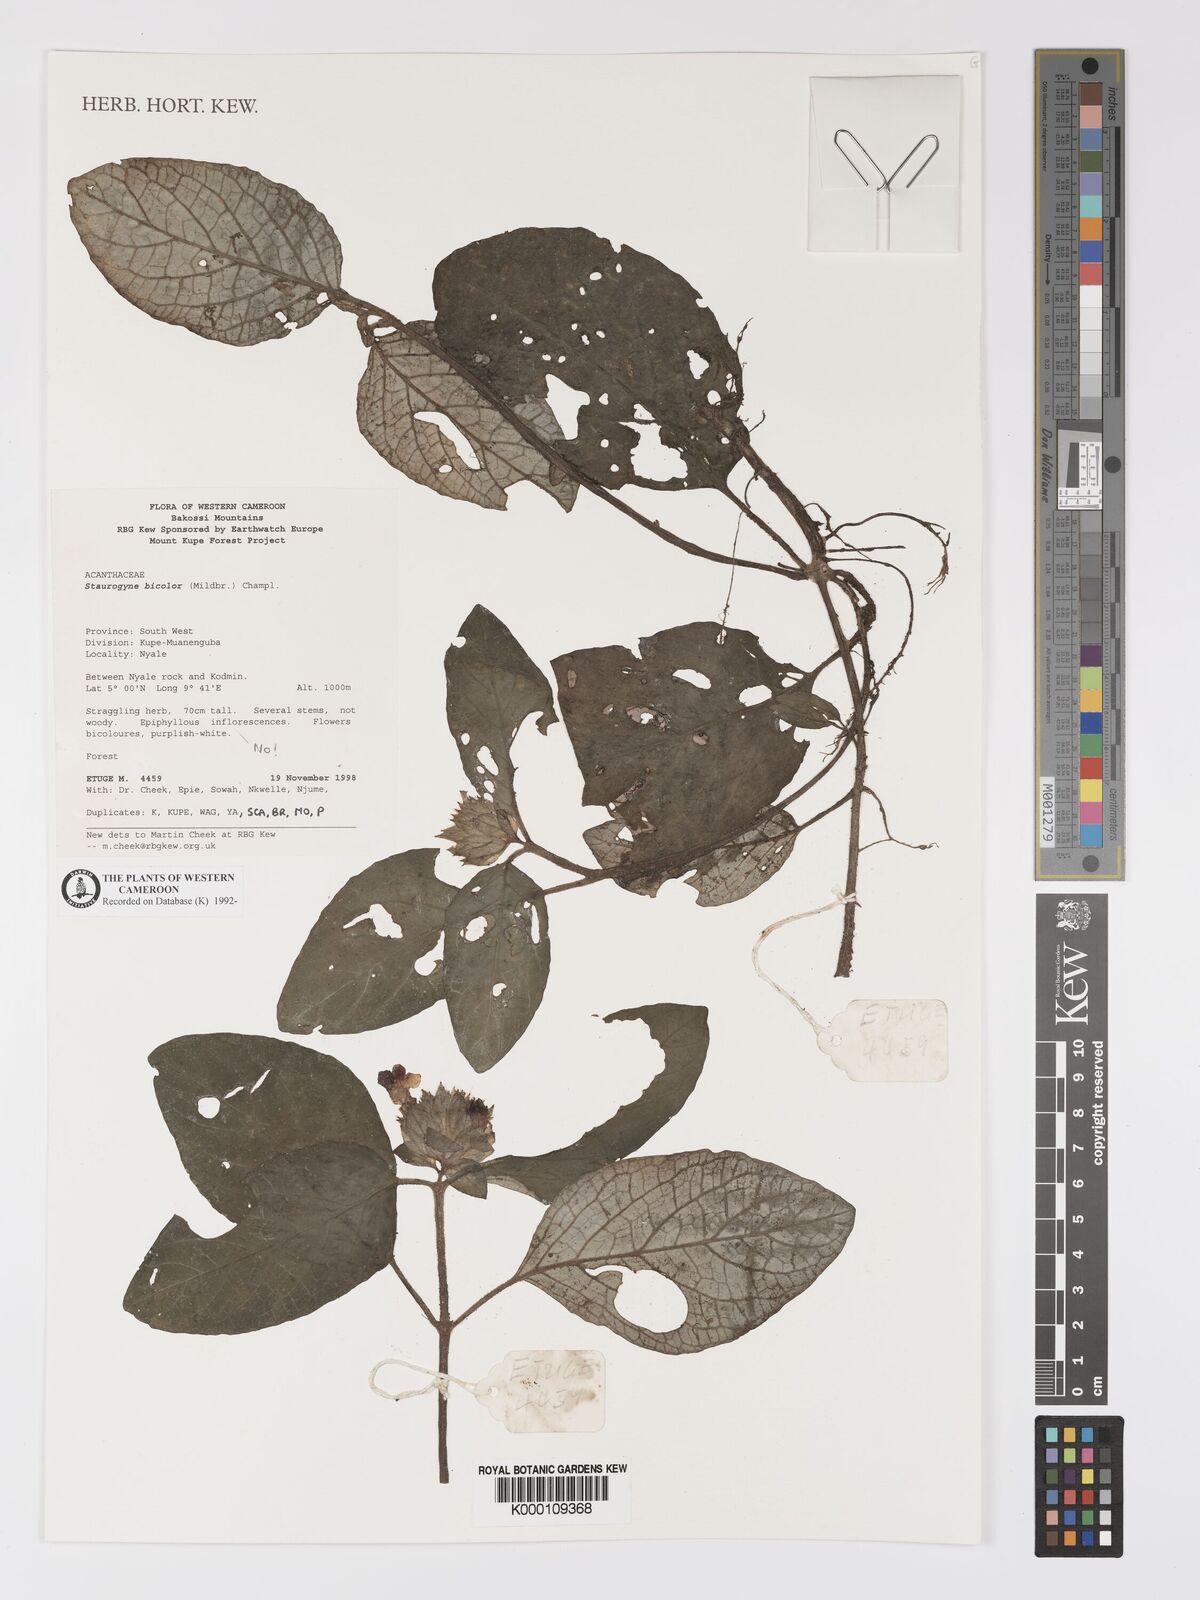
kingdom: Plantae
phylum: Tracheophyta
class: Magnoliopsida
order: Lamiales
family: Acanthaceae
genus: Staurogyne
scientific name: Staurogyne bicolor
